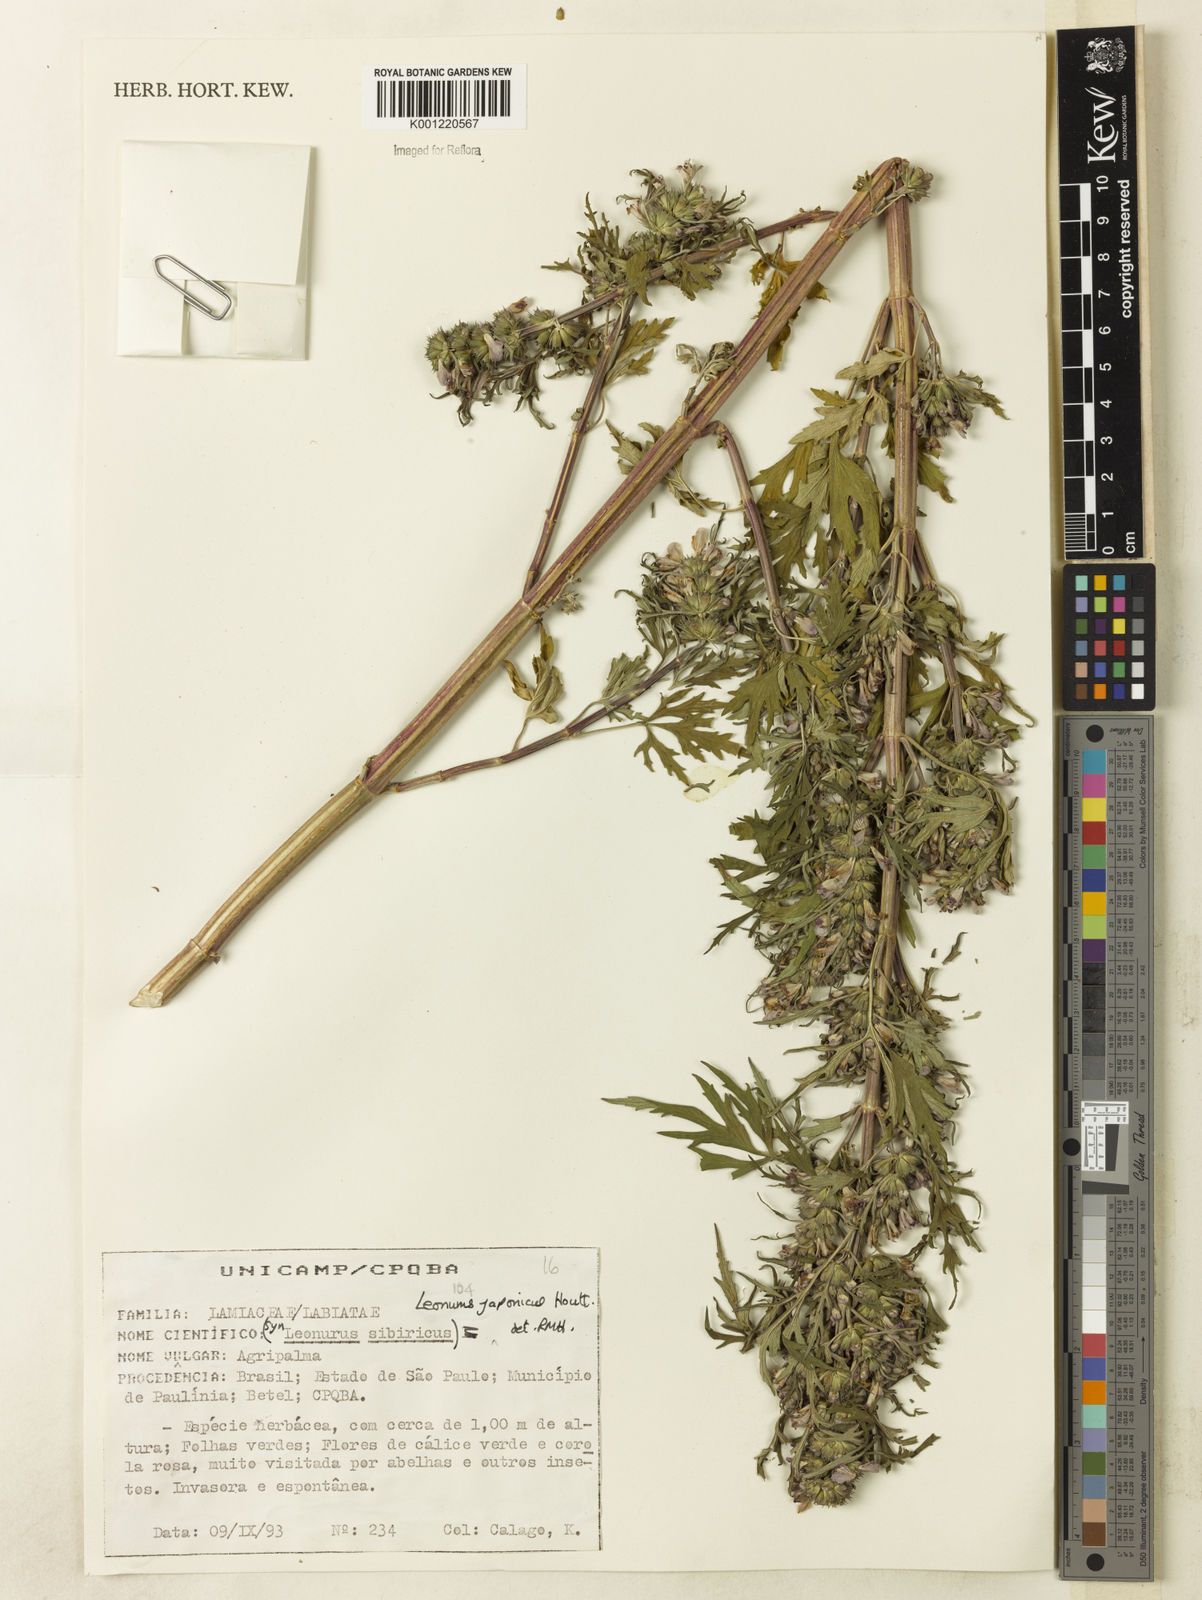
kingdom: Plantae
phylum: Tracheophyta
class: Magnoliopsida
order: Lamiales
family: Lamiaceae
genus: Leonurus
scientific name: Leonurus japonicus
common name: Honeyweed
